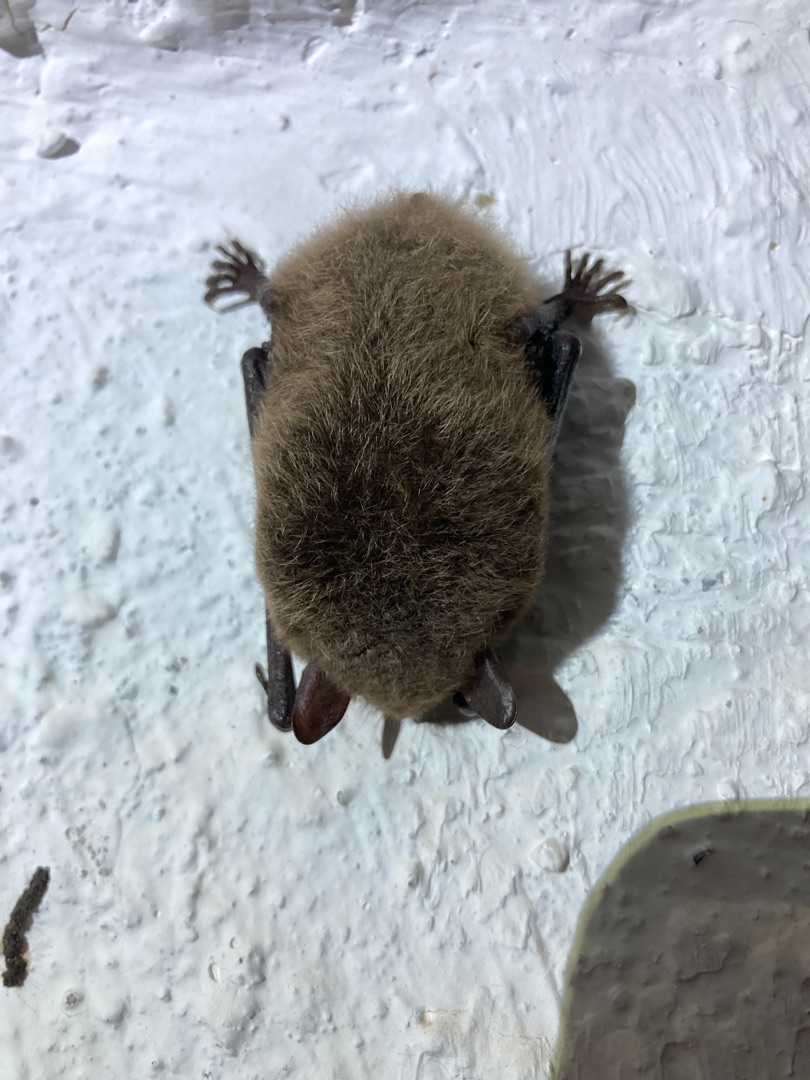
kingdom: Animalia
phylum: Chordata
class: Mammalia
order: Chiroptera
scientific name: Chiroptera
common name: Flagermus
